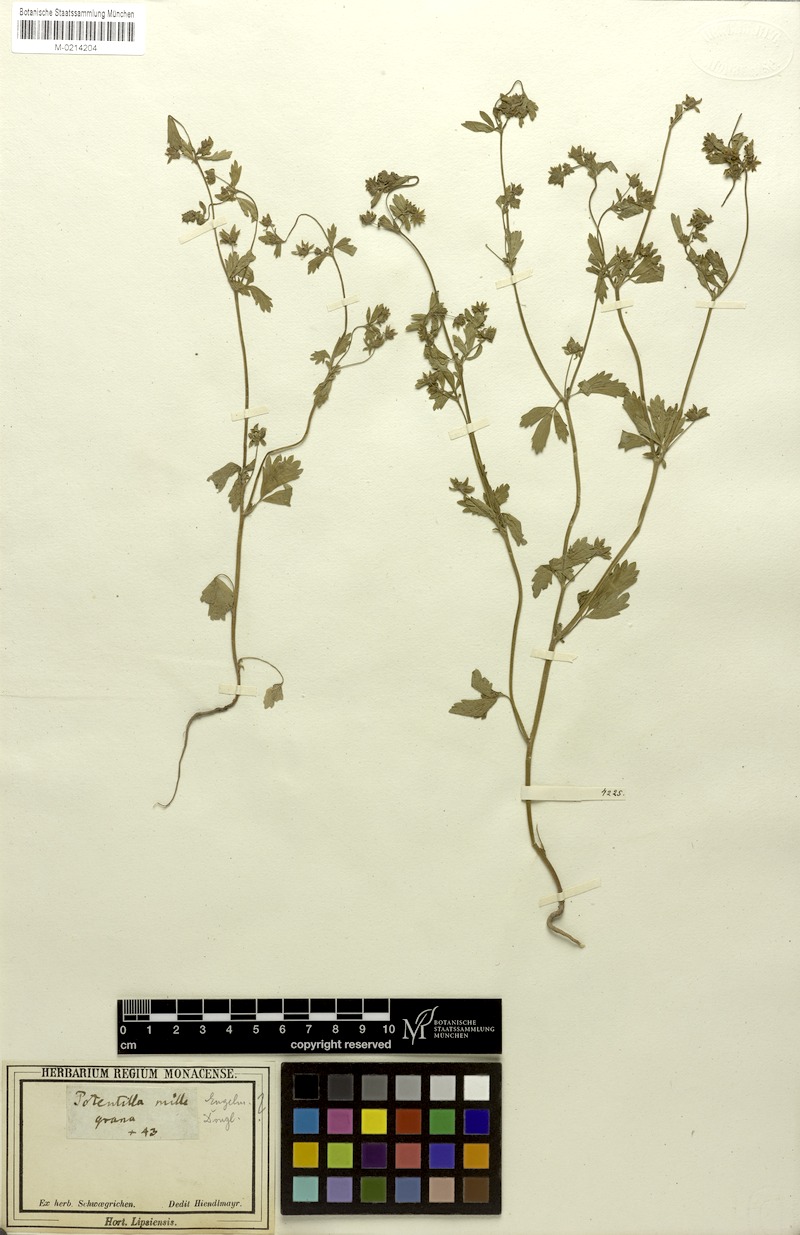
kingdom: Plantae
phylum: Tracheophyta
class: Magnoliopsida
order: Rosales
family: Rosaceae
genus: Potentilla
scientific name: Potentilla rivalis
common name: Brook cinquefoil
